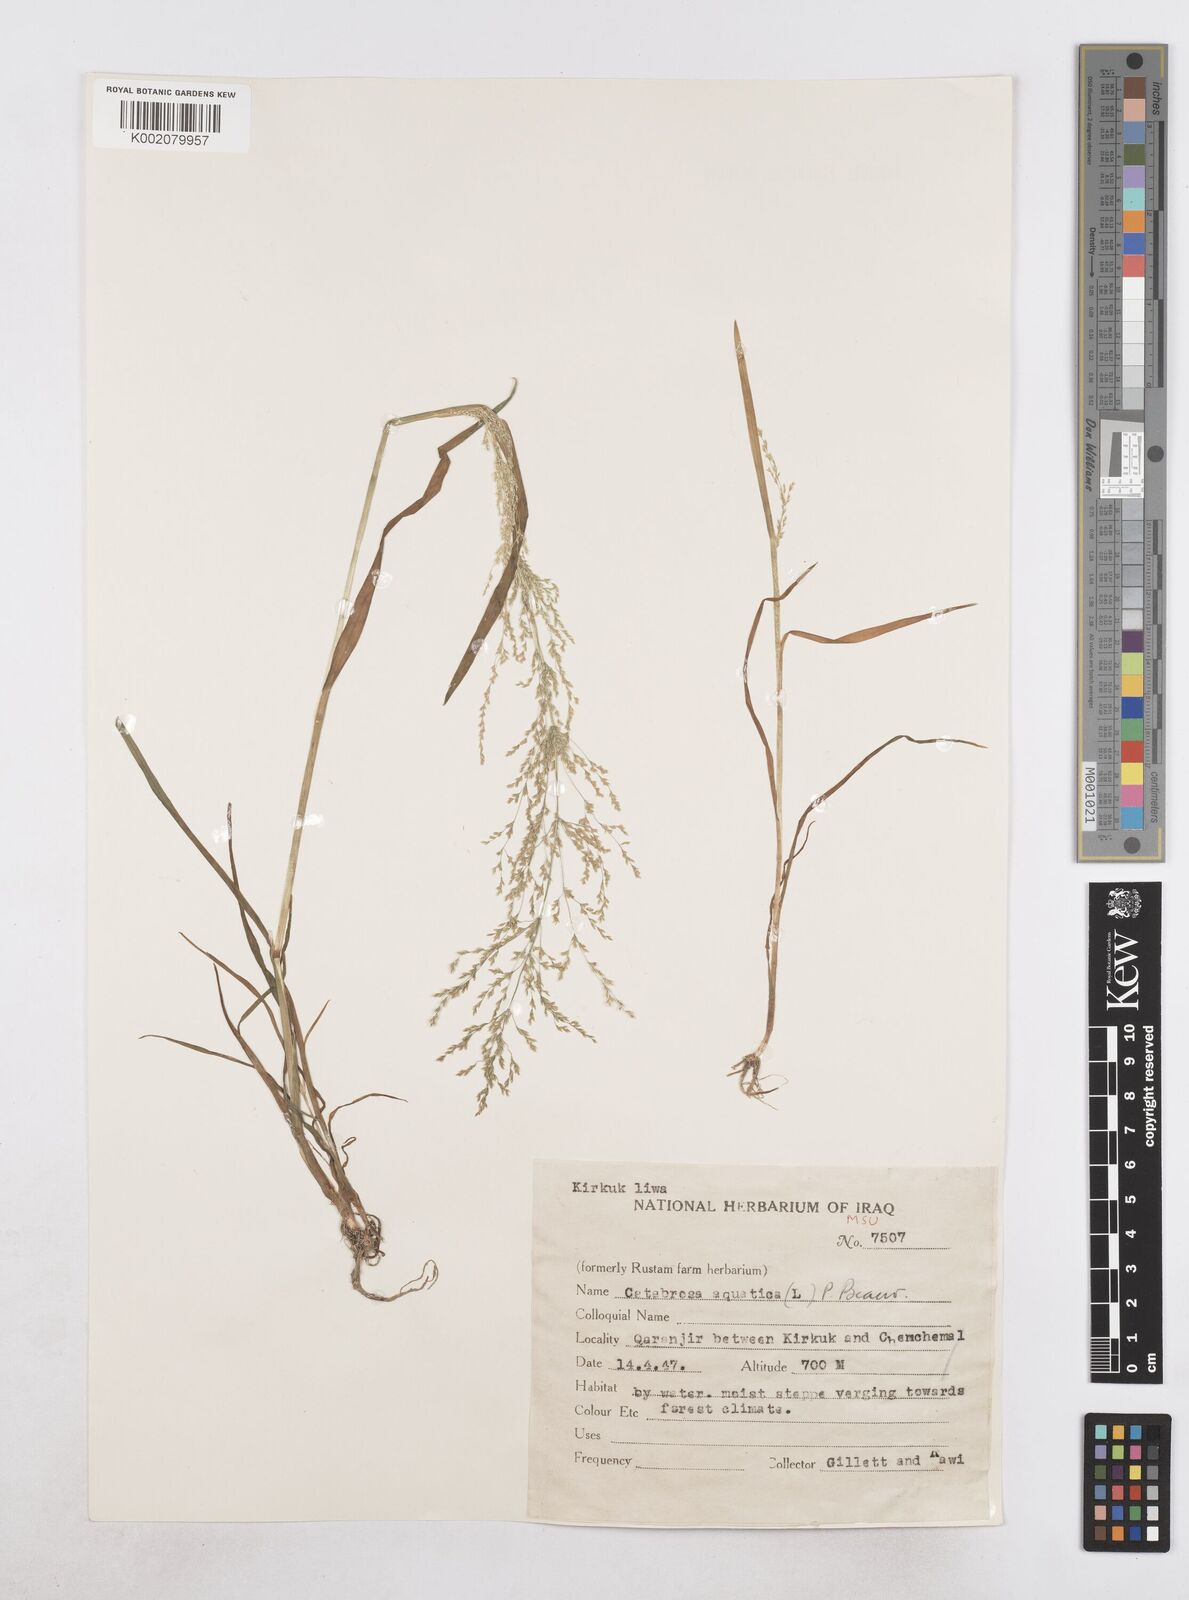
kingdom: Plantae
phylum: Tracheophyta
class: Liliopsida
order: Poales
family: Poaceae
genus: Catabrosa
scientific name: Catabrosa aquatica
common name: Whorl-grass
